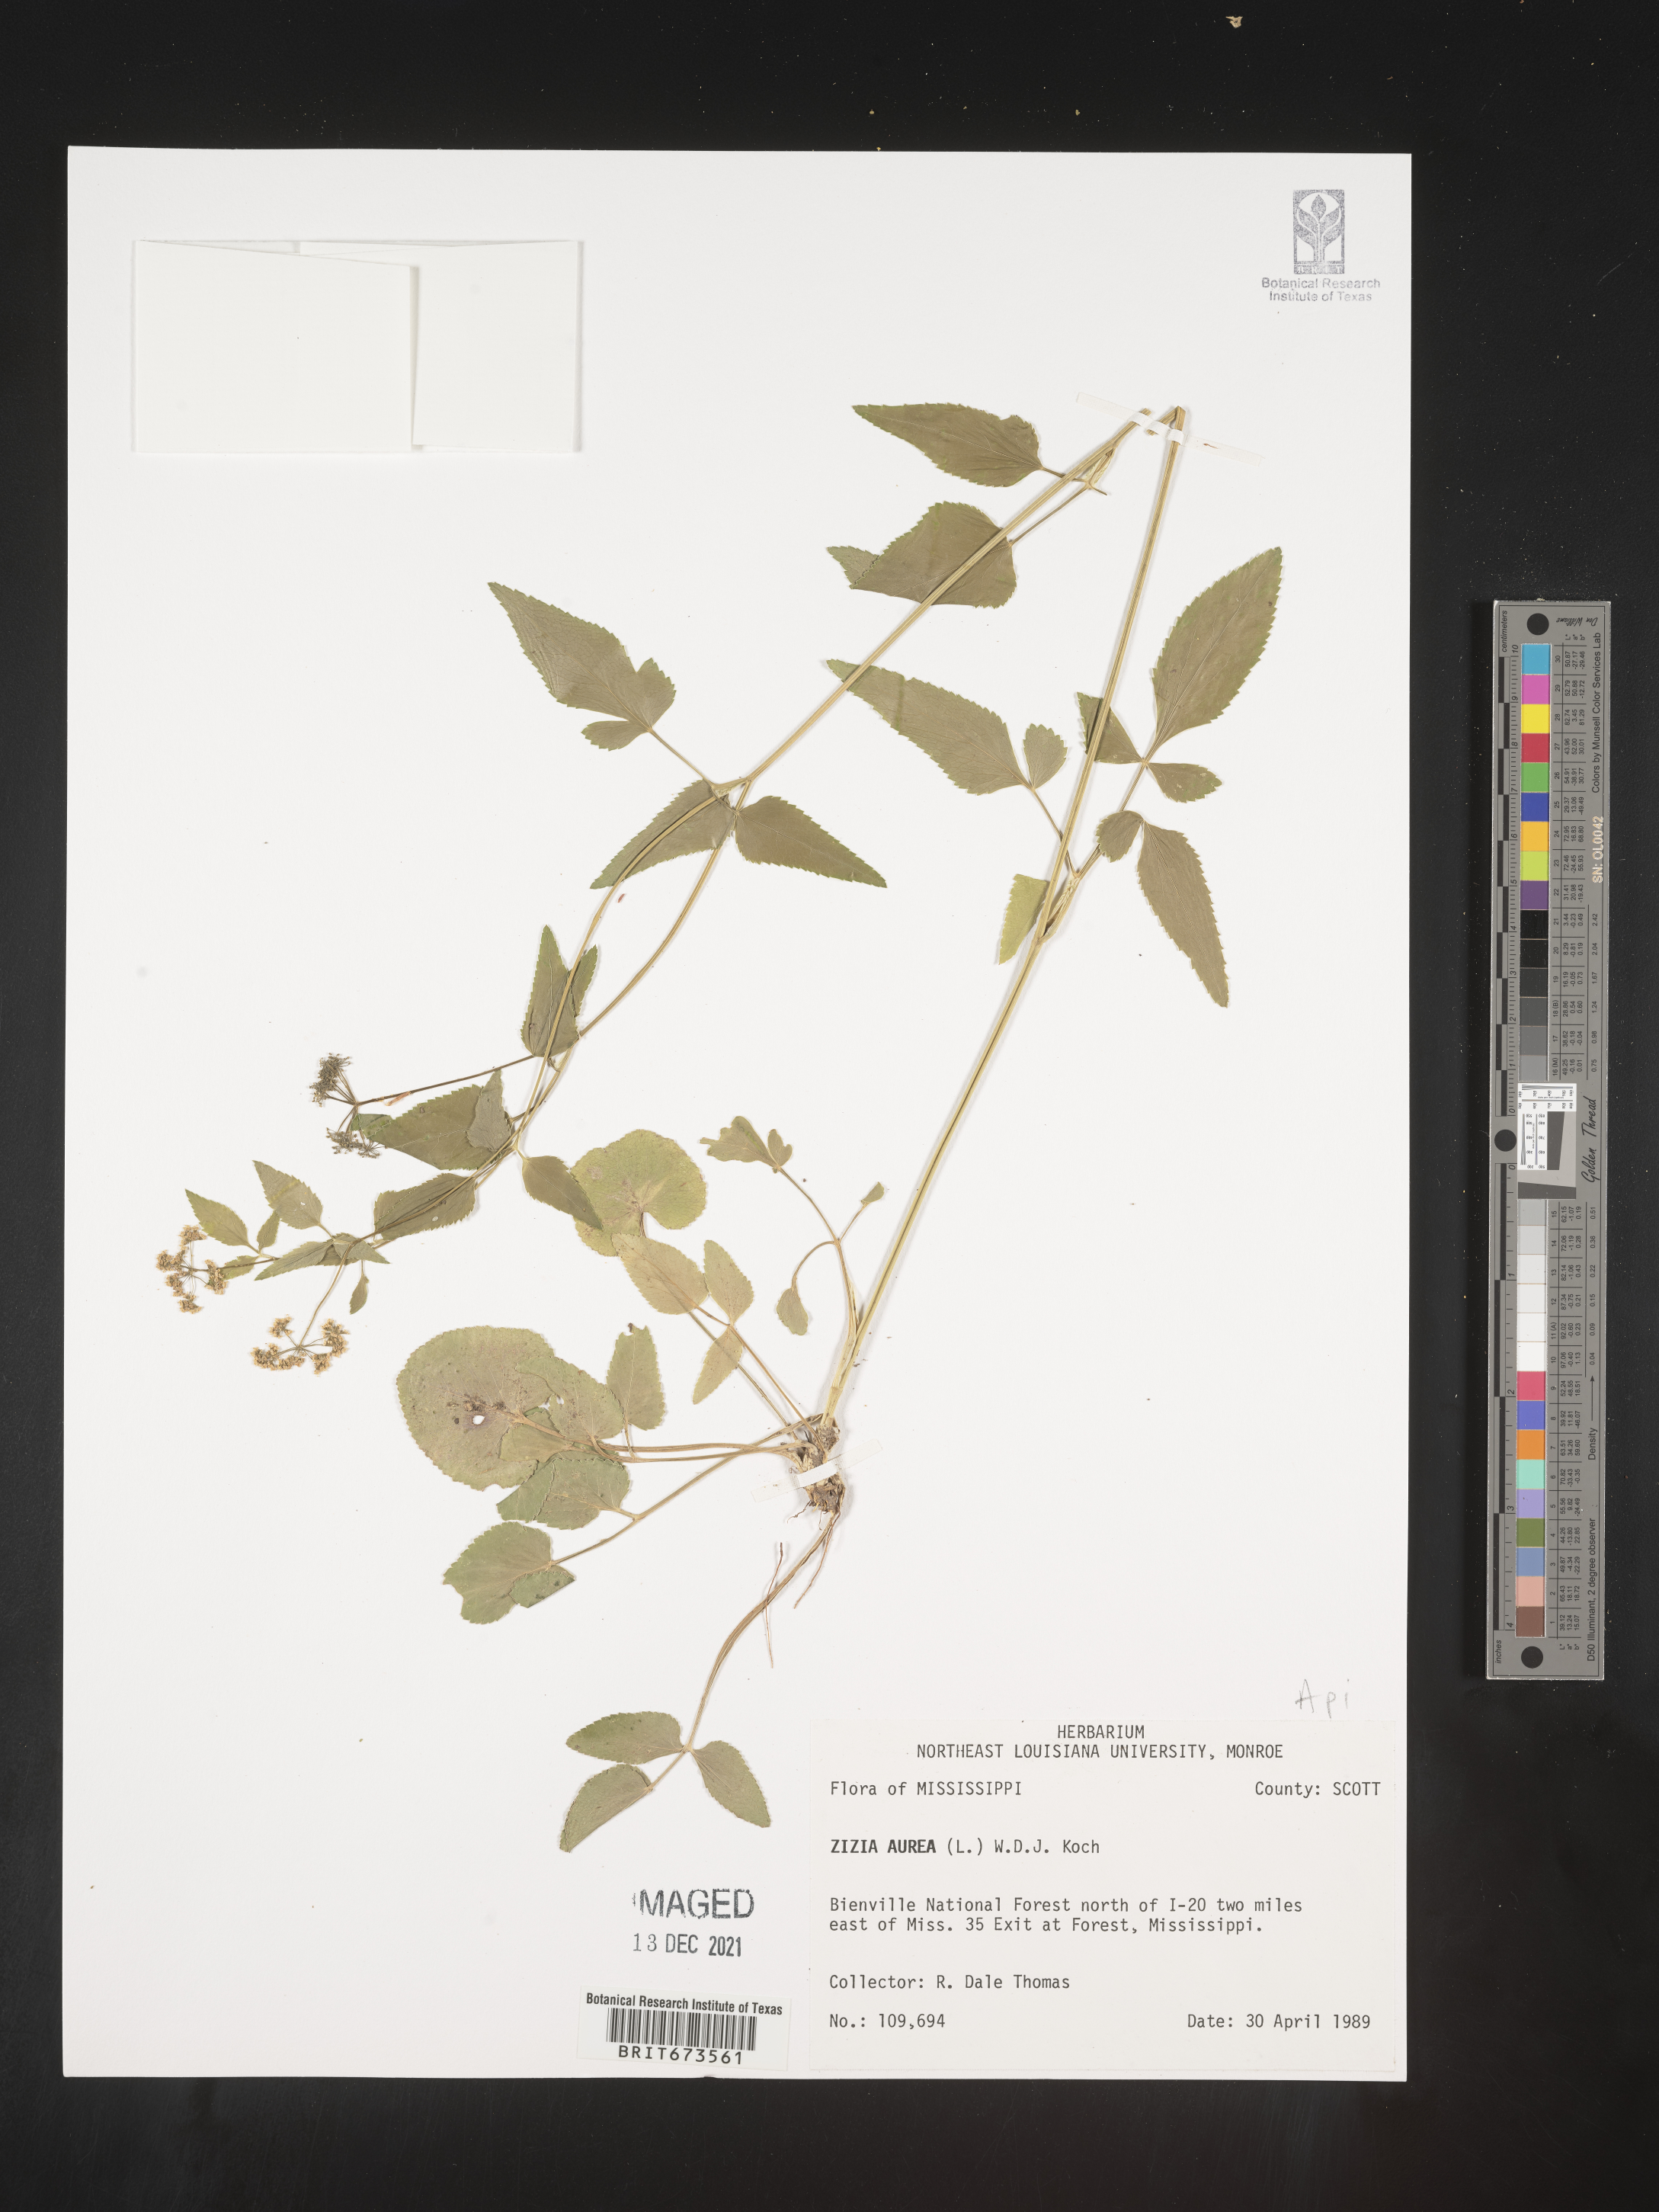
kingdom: Plantae
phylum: Tracheophyta
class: Magnoliopsida
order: Apiales
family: Apiaceae
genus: Zizia
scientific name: Zizia aurea
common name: Golden alexanders
